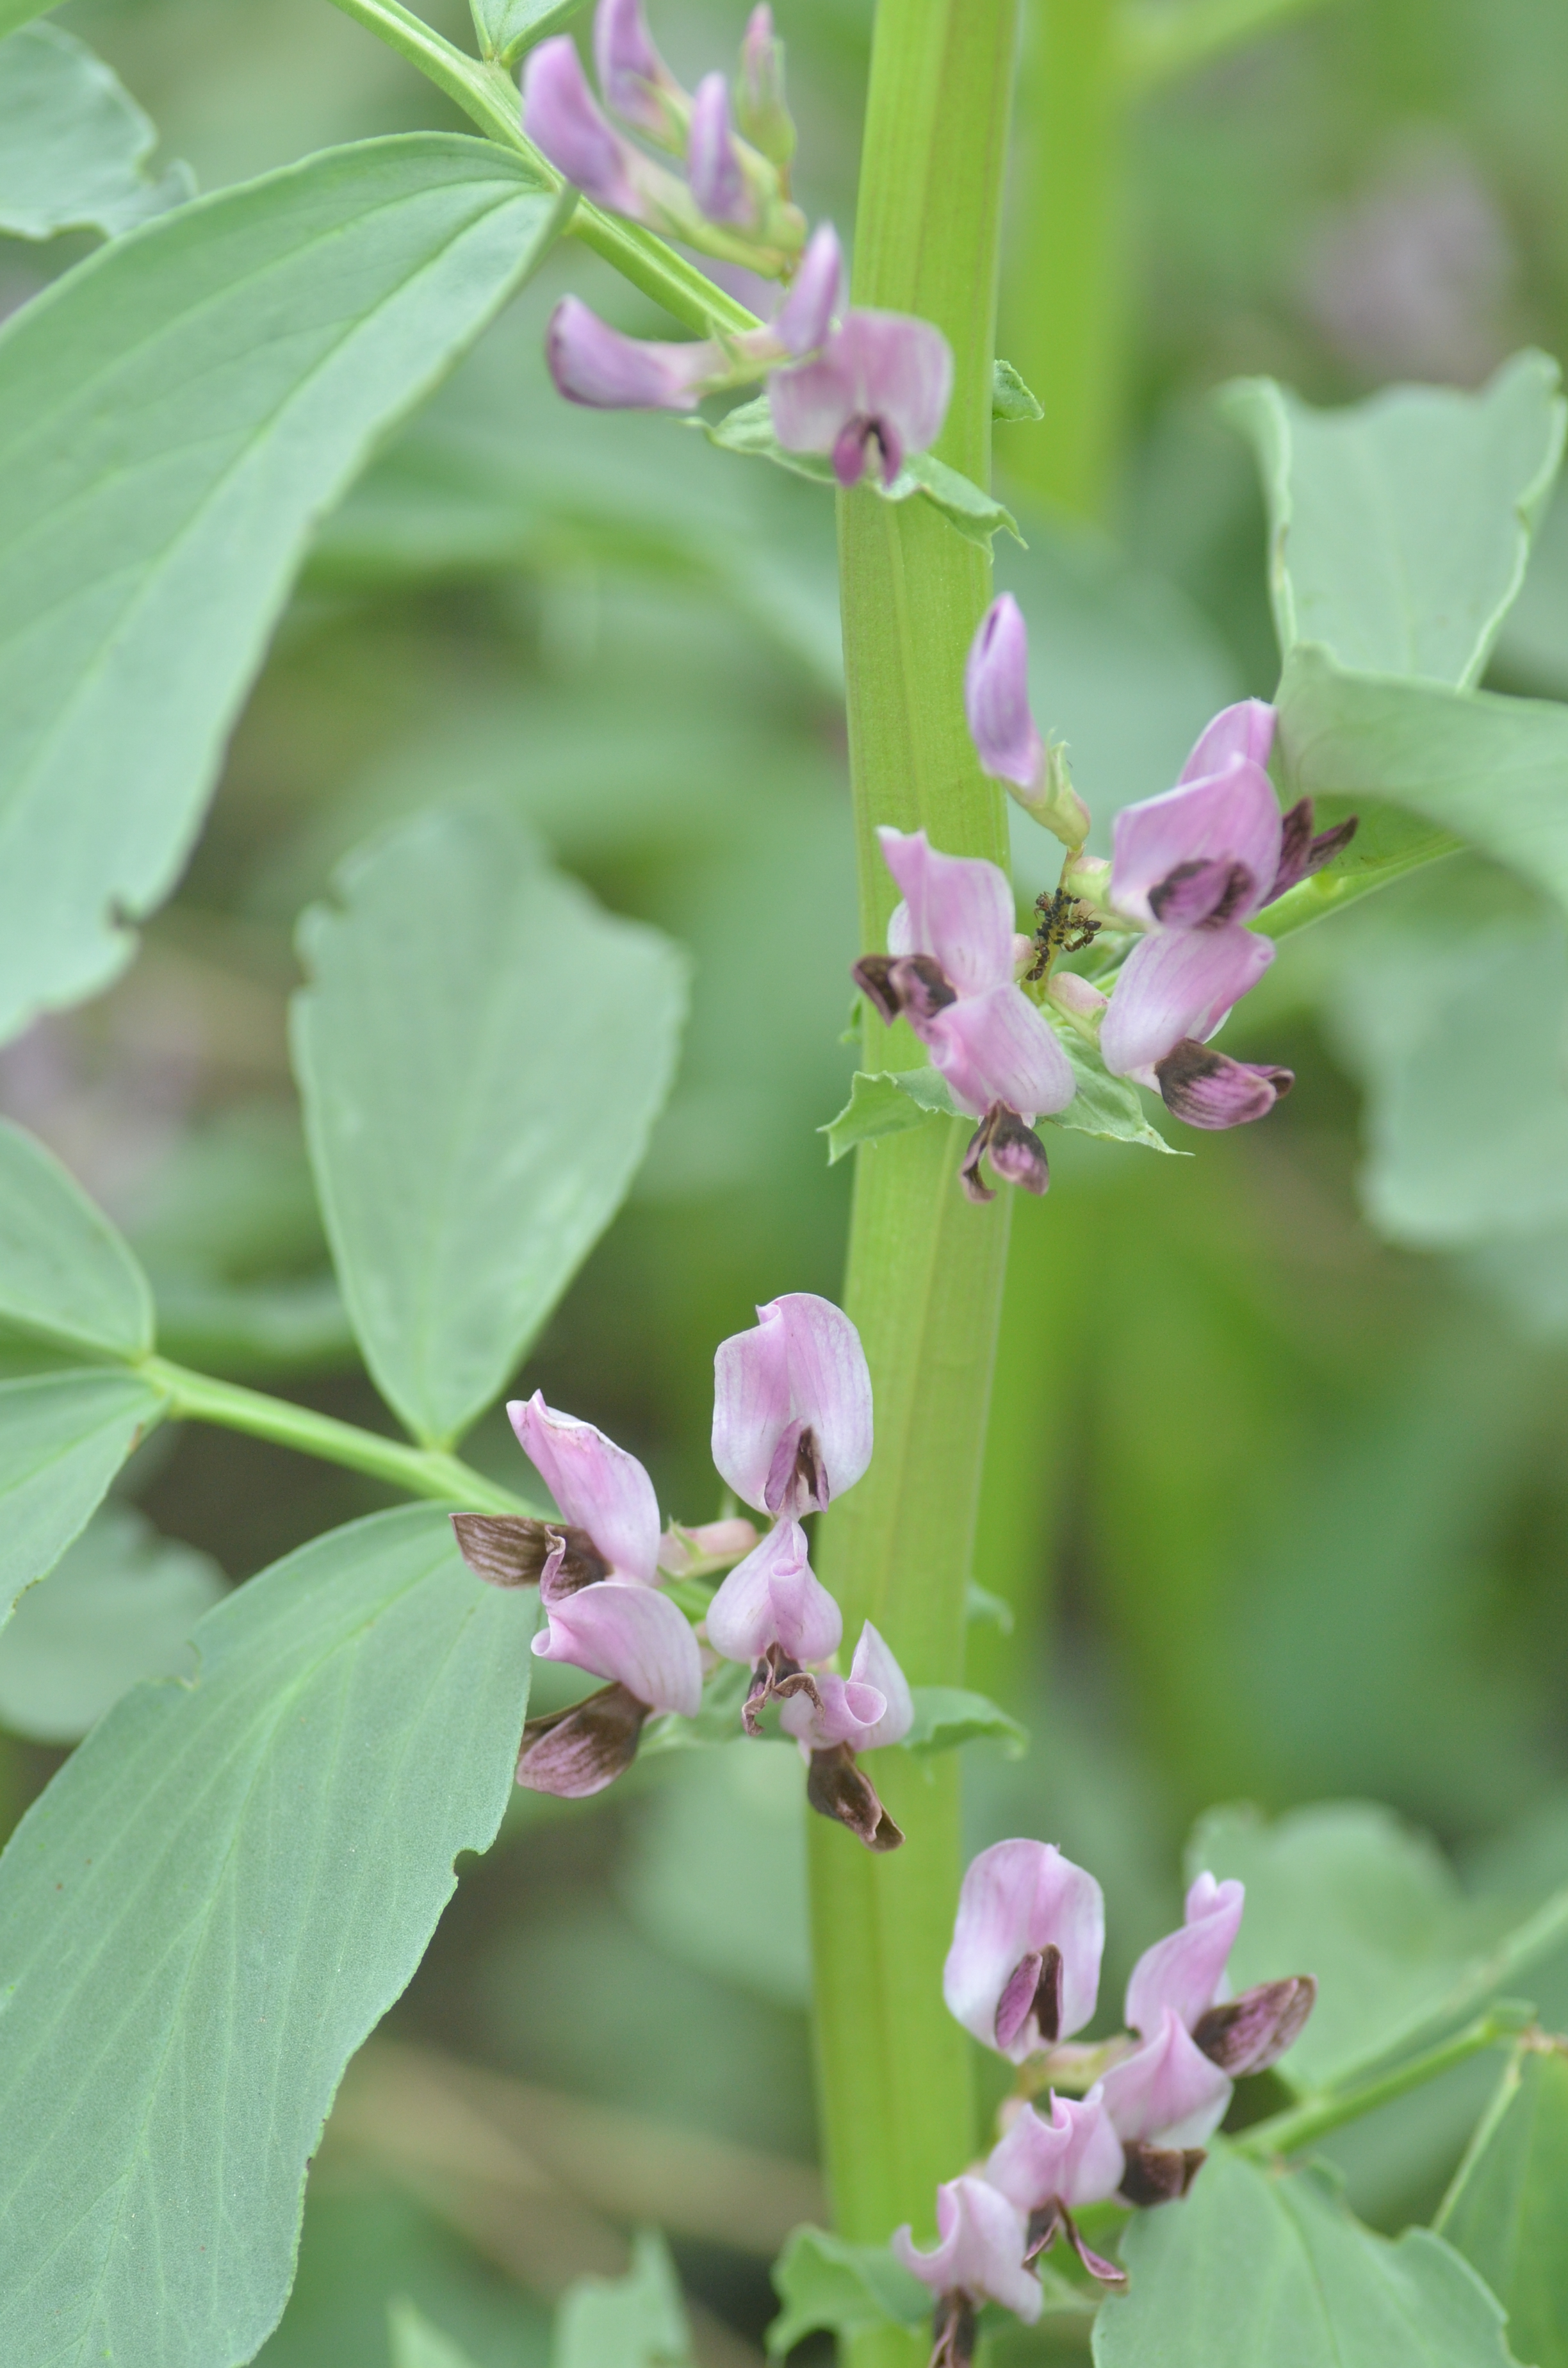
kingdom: Plantae
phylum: Tracheophyta
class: Magnoliopsida
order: Fabales
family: Fabaceae
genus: Vicia
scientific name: Vicia faba
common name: Broad bean
